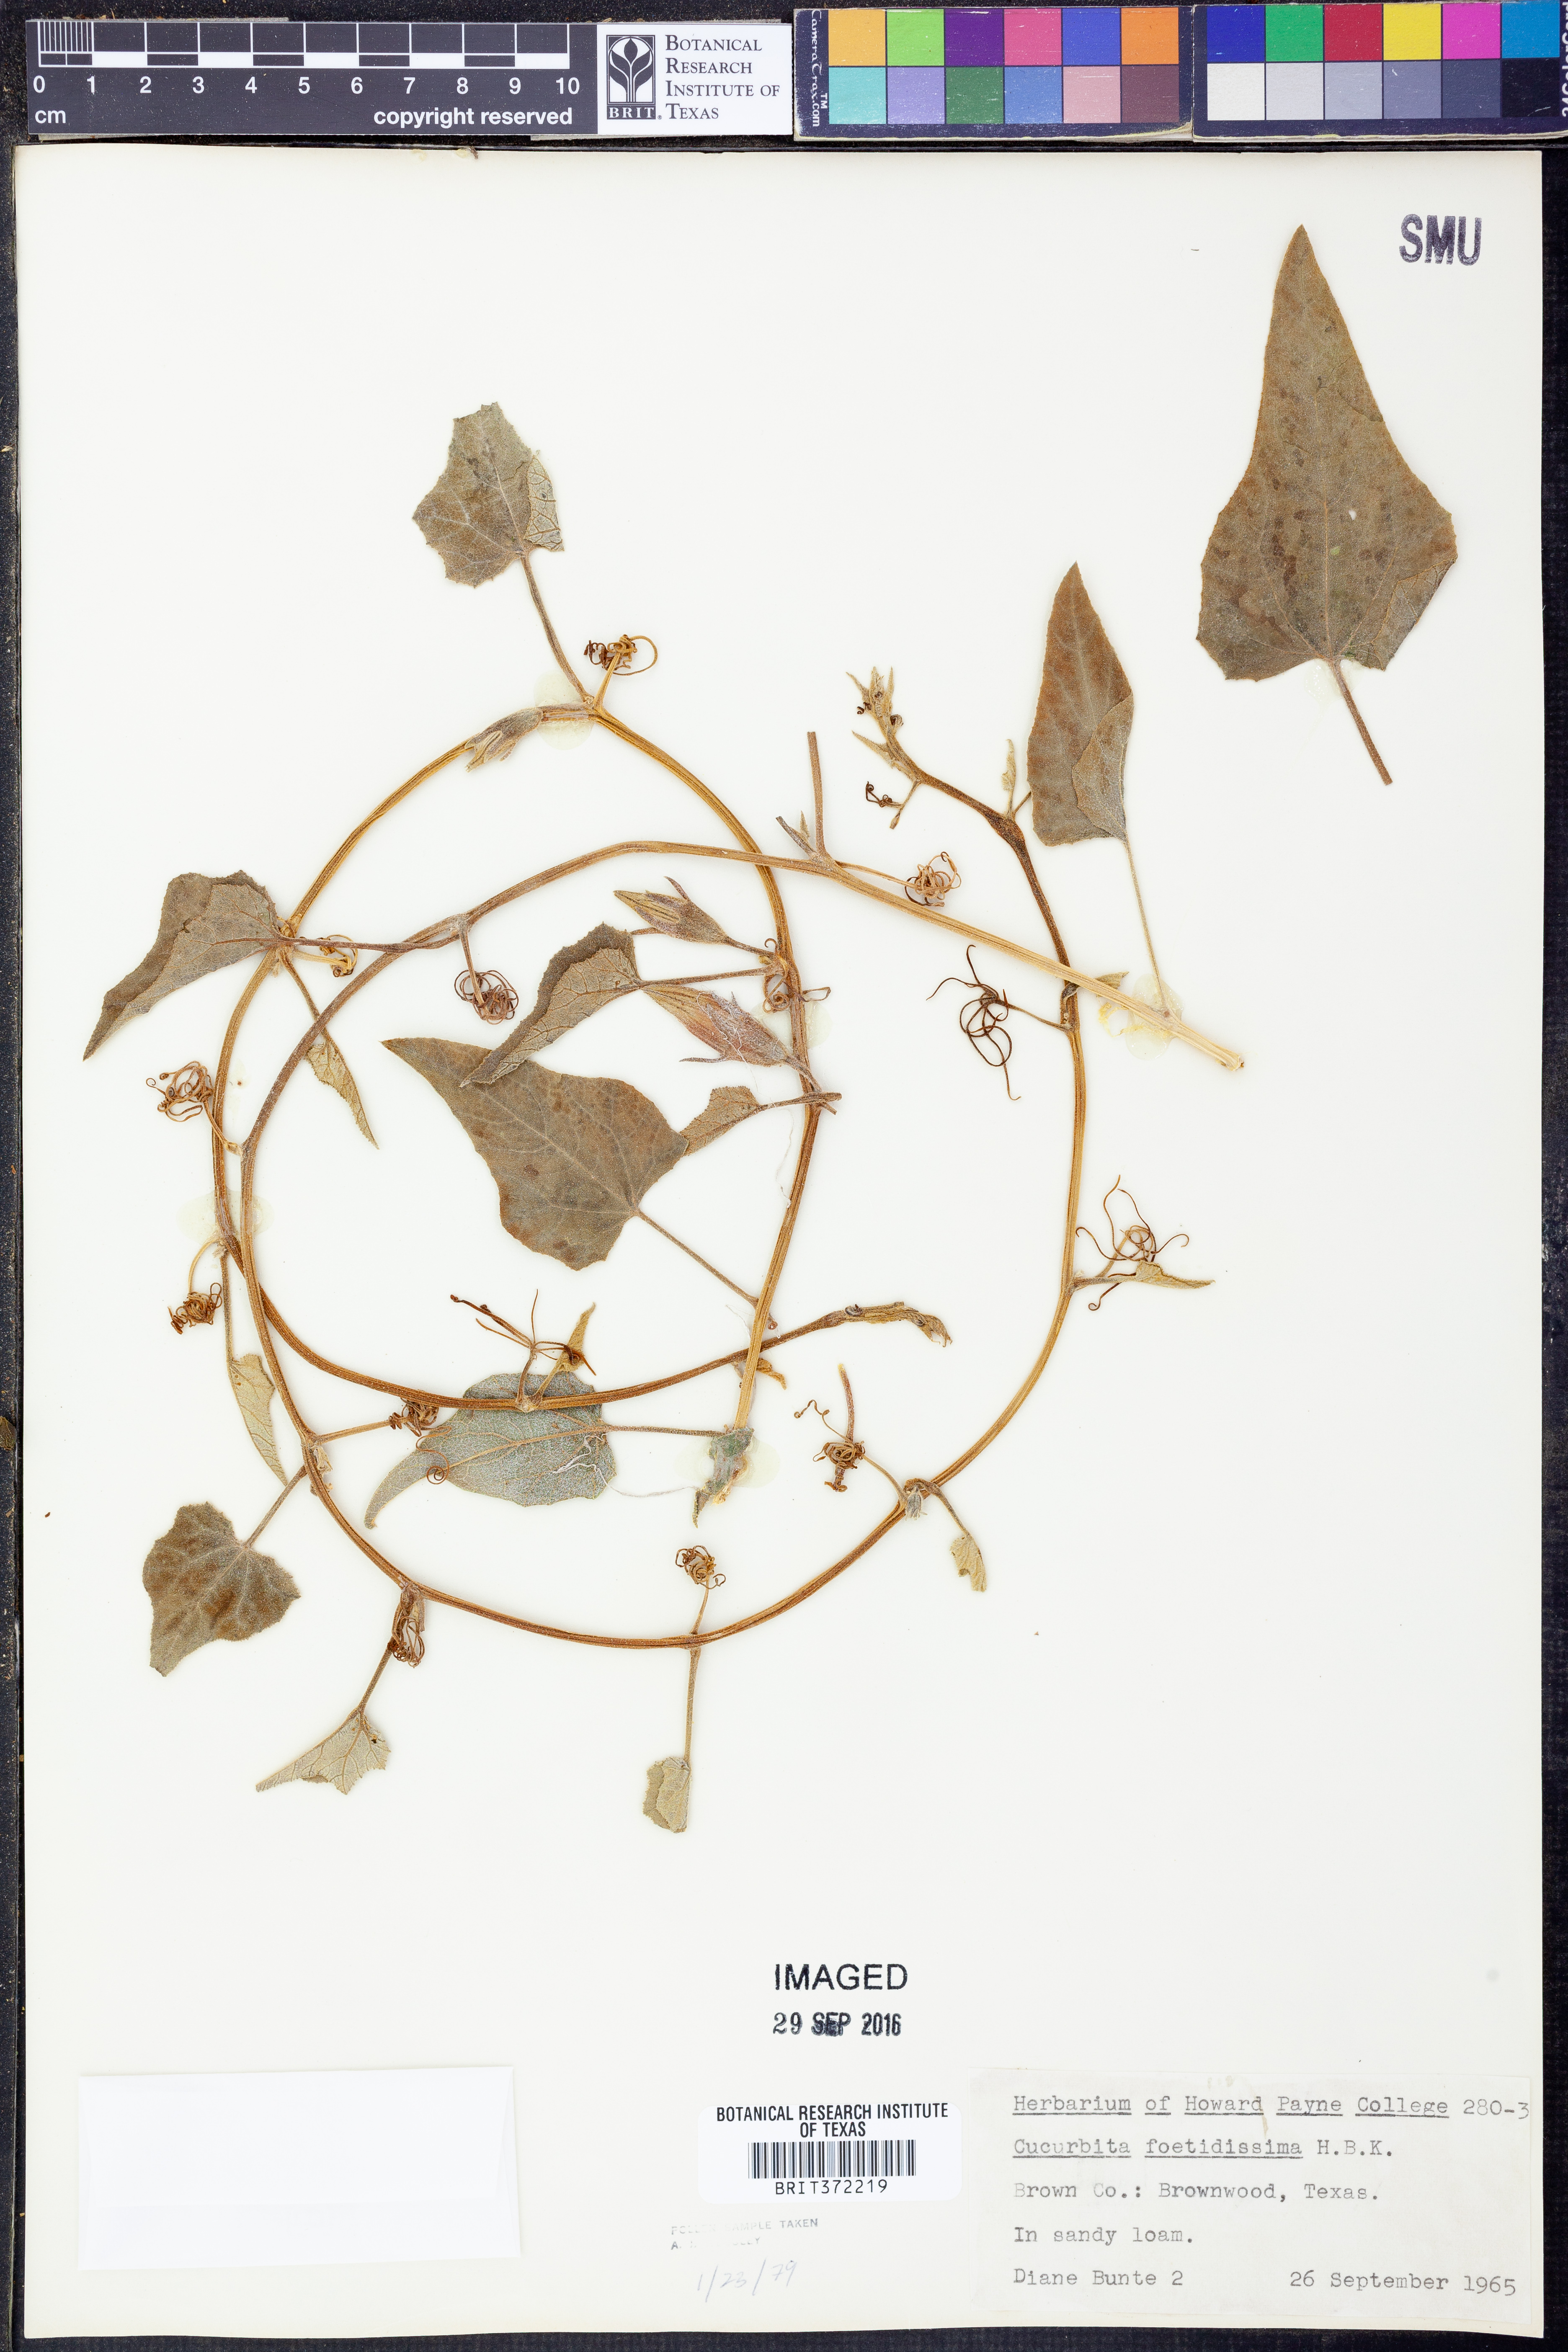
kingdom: Plantae
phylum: Tracheophyta
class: Magnoliopsida
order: Cucurbitales
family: Cucurbitaceae
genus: Cucurbita
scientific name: Cucurbita foetidissima
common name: Buffalo gourd
